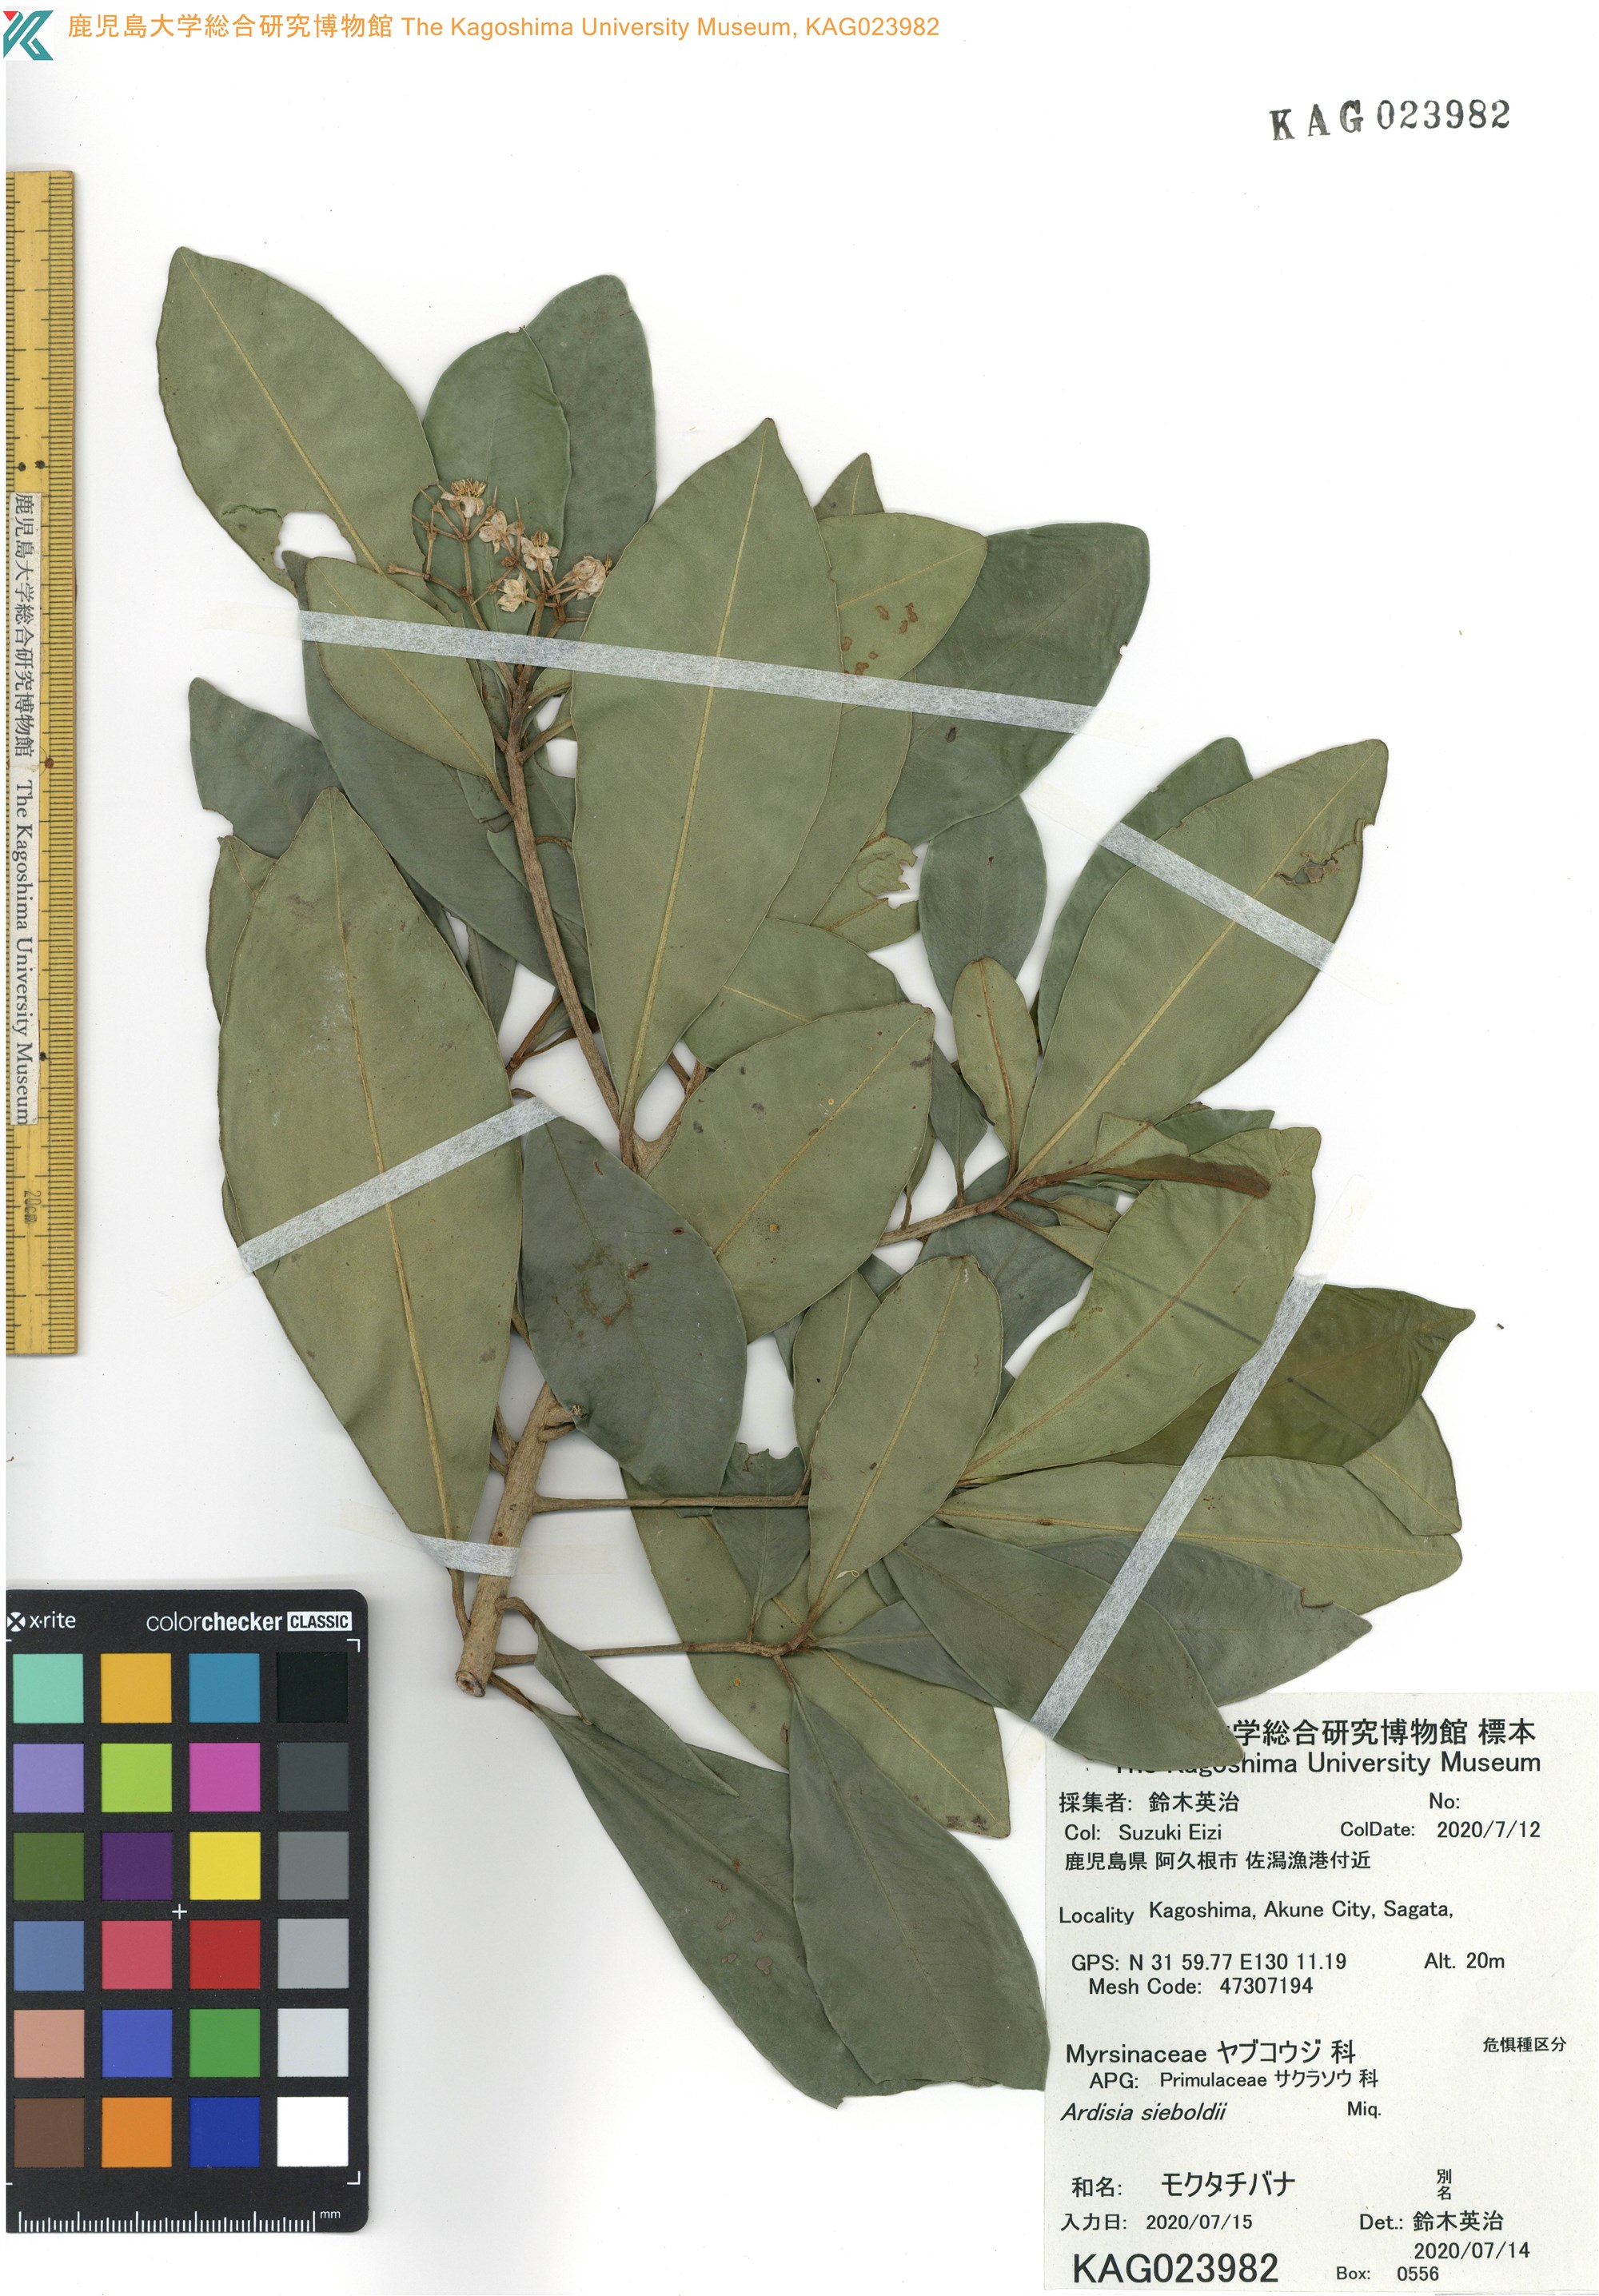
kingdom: Plantae
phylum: Tracheophyta
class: Magnoliopsida
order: Ericales
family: Primulaceae
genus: Ardisia
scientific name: Ardisia sieboldii
